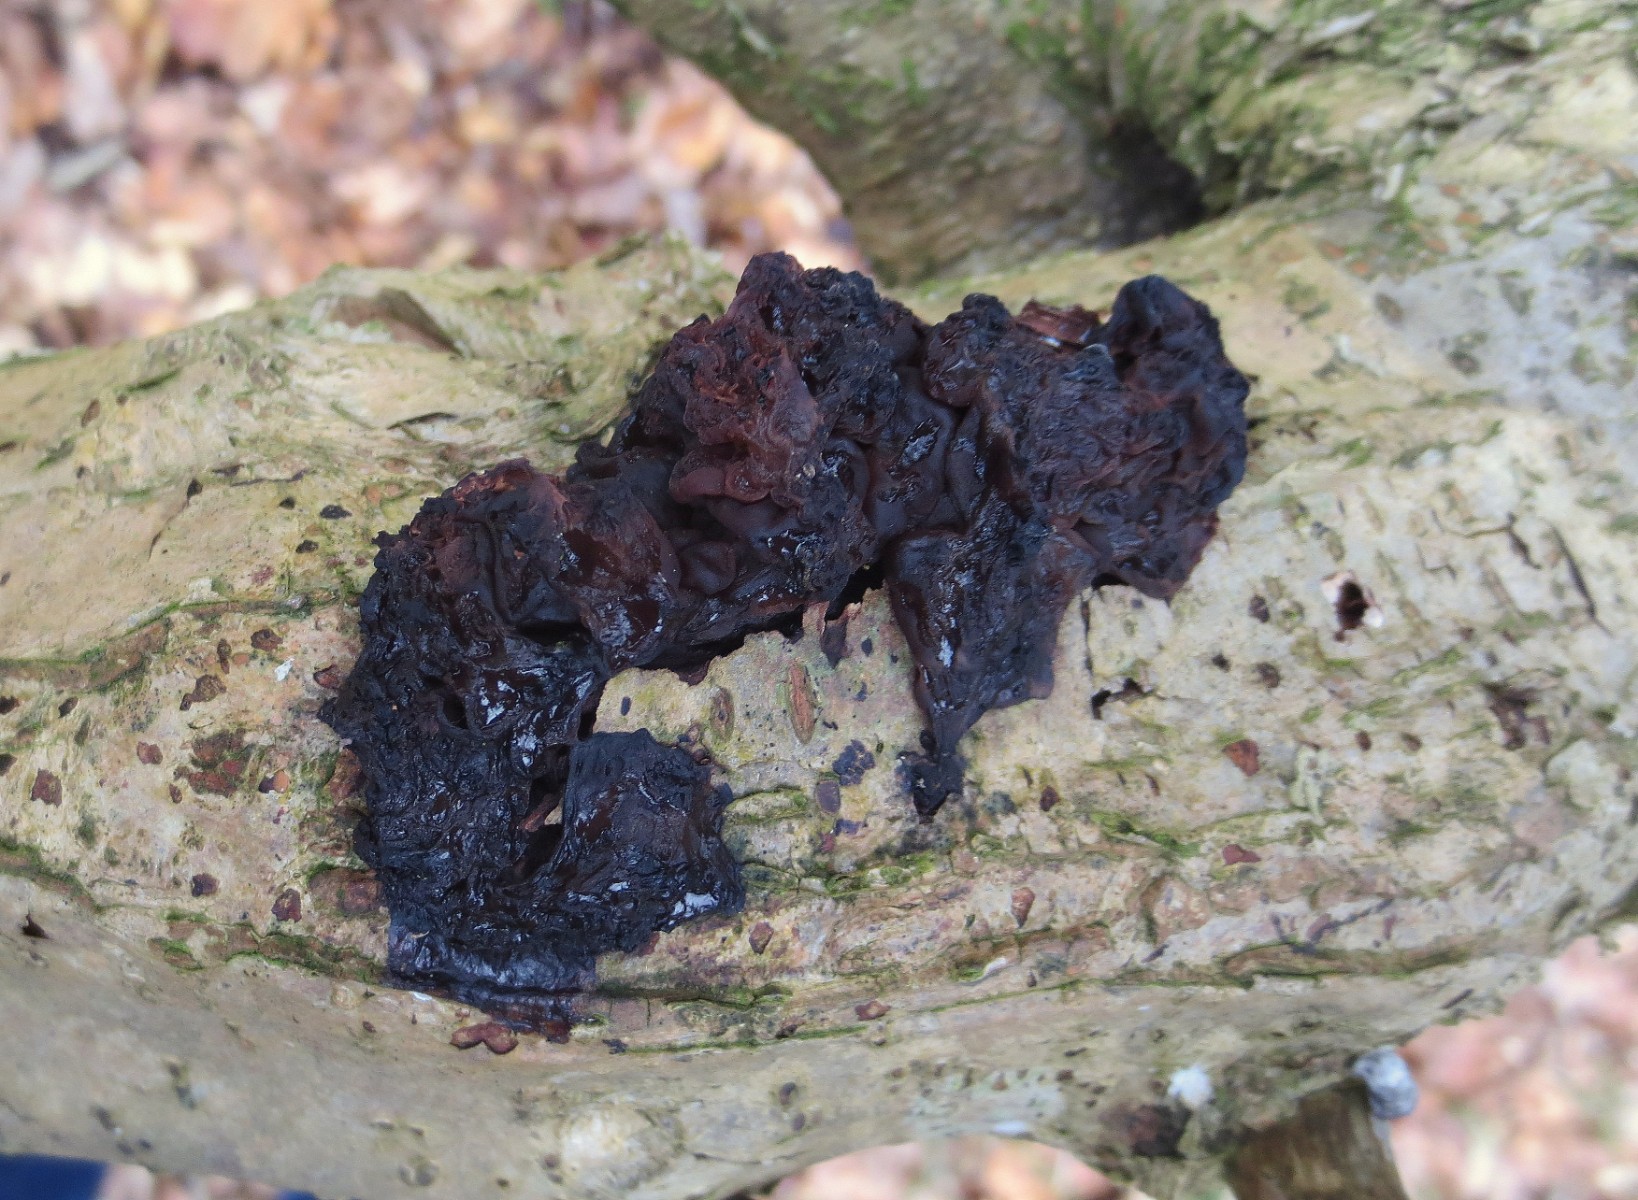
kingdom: Fungi
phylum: Basidiomycota
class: Tremellomycetes
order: Tremellales
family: Tremellaceae
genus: Phaeotremella
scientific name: Phaeotremella frondosa
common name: kæmpe-bævresvamp
